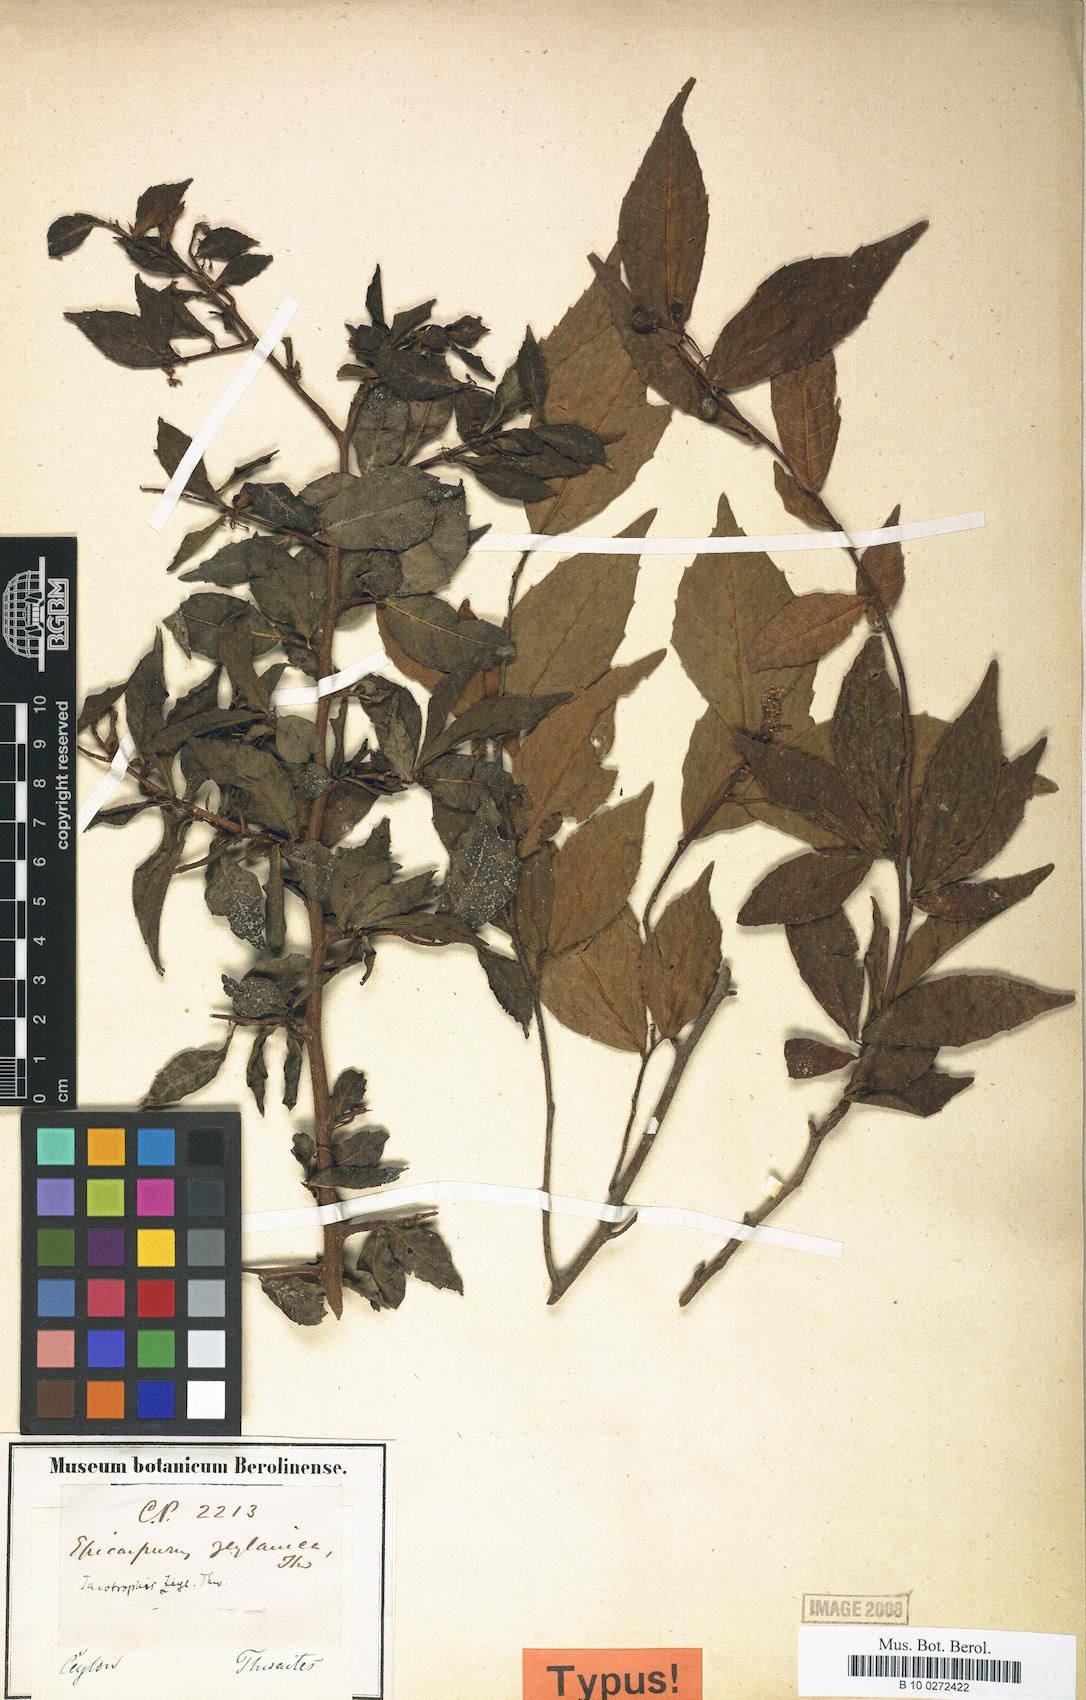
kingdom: Plantae
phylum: Tracheophyta
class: Magnoliopsida
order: Rosales
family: Moraceae
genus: Taxotrophis
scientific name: Taxotrophis zeylanica
